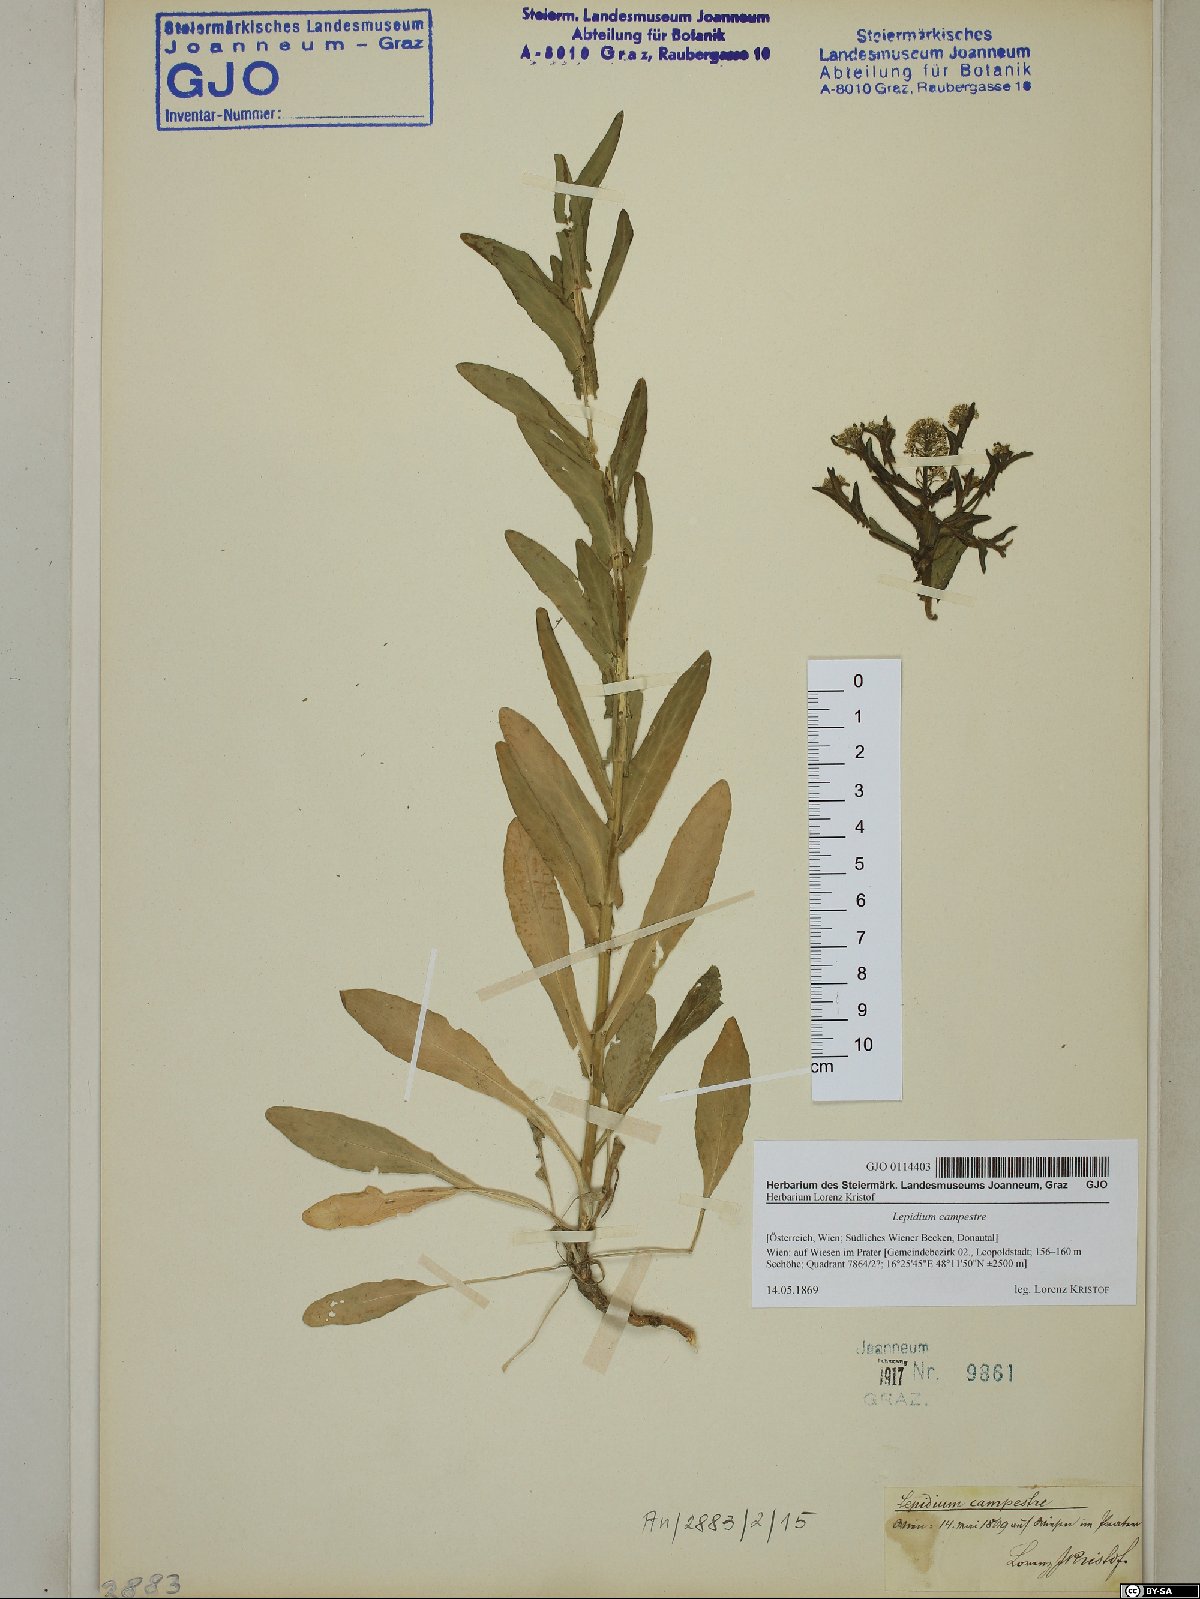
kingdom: Plantae
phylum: Tracheophyta
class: Magnoliopsida
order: Brassicales
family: Brassicaceae
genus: Lepidium
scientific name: Lepidium campestre
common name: Field pepperwort
